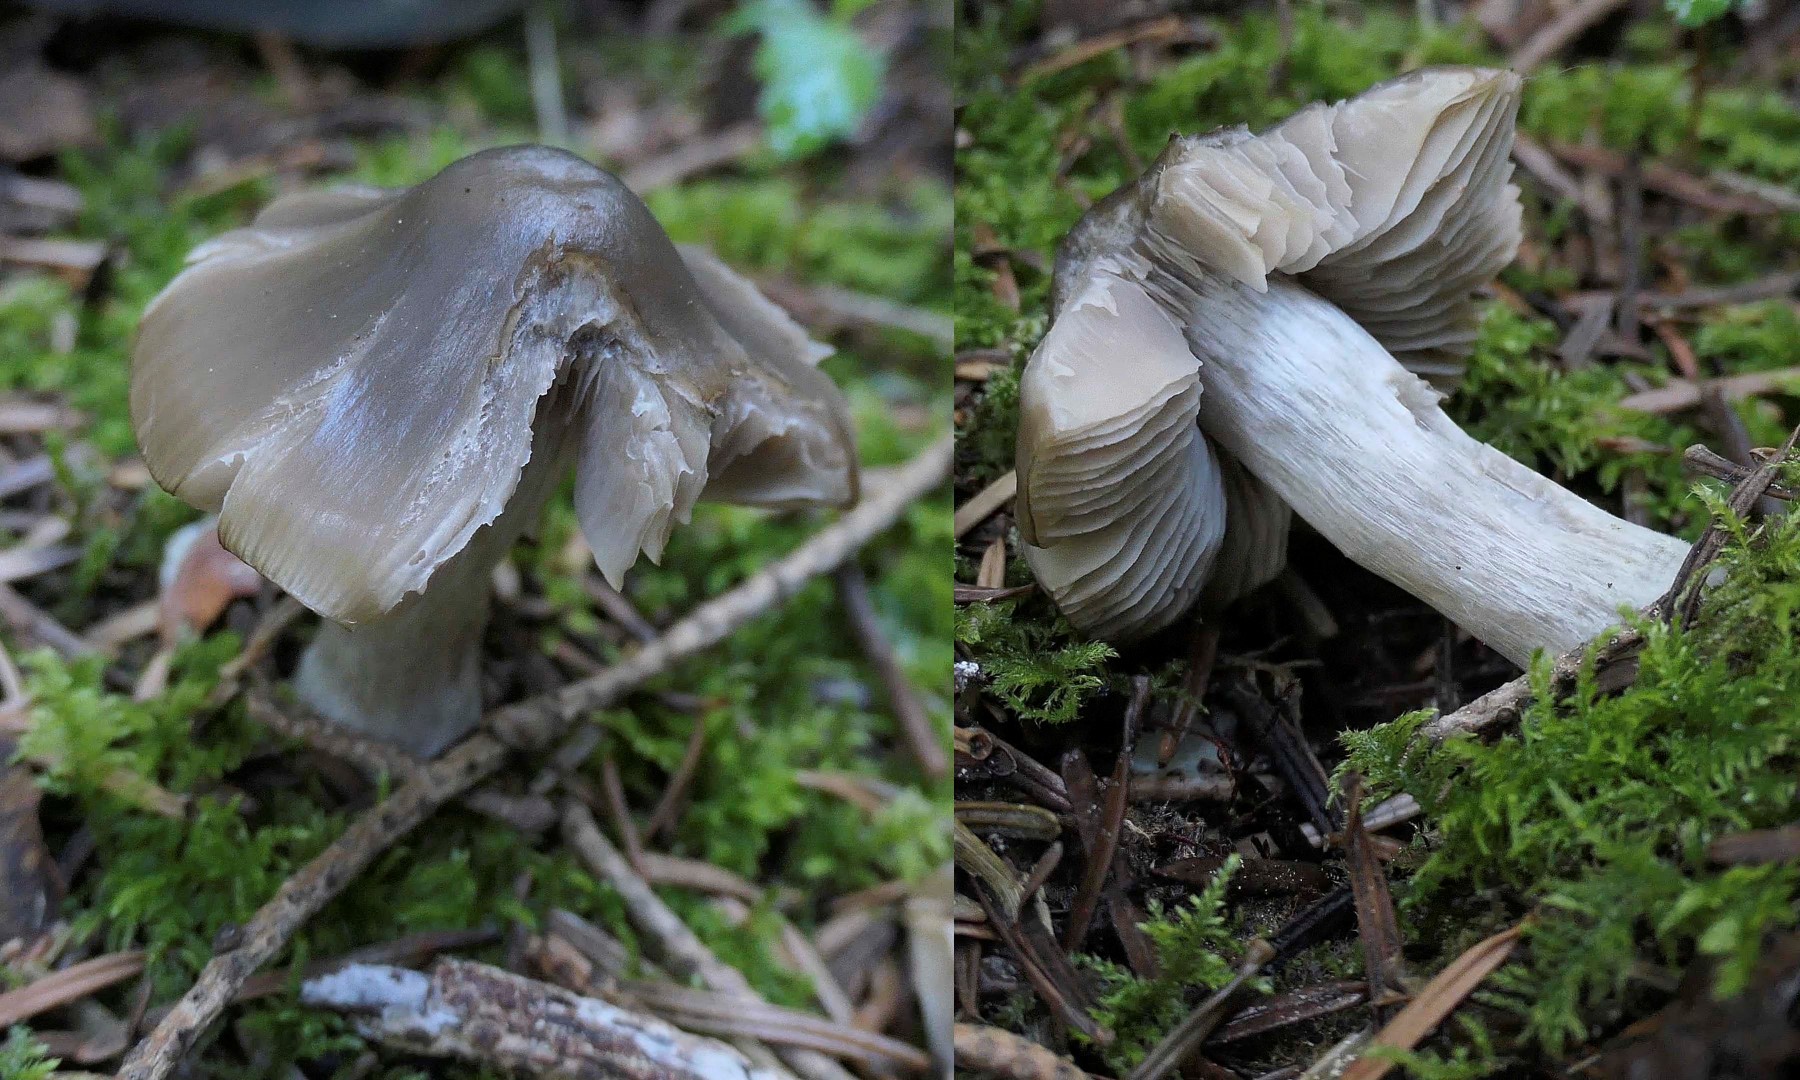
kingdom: Fungi
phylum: Basidiomycota
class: Agaricomycetes
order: Agaricales
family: Entolomataceae
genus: Entoloma
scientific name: Entoloma
